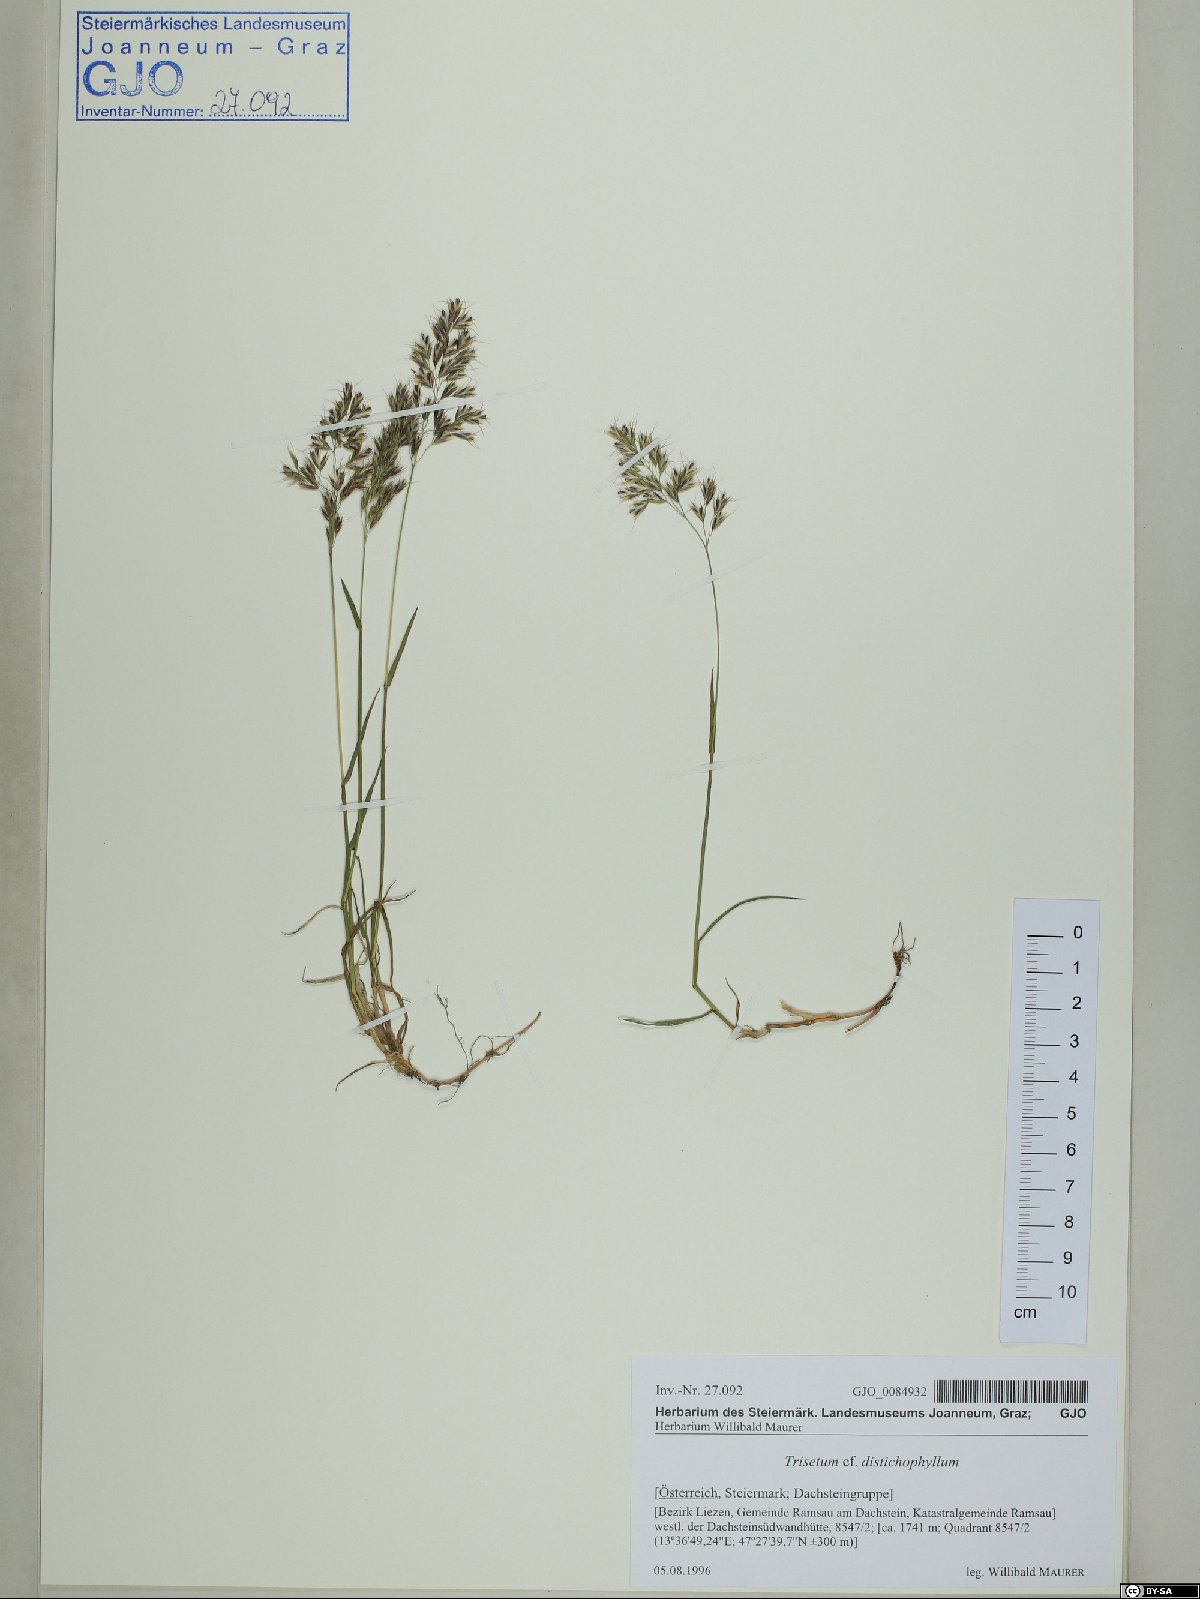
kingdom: Plantae
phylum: Tracheophyta
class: Liliopsida
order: Poales
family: Poaceae
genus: Acrospelion
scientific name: Acrospelion distichophyllum
